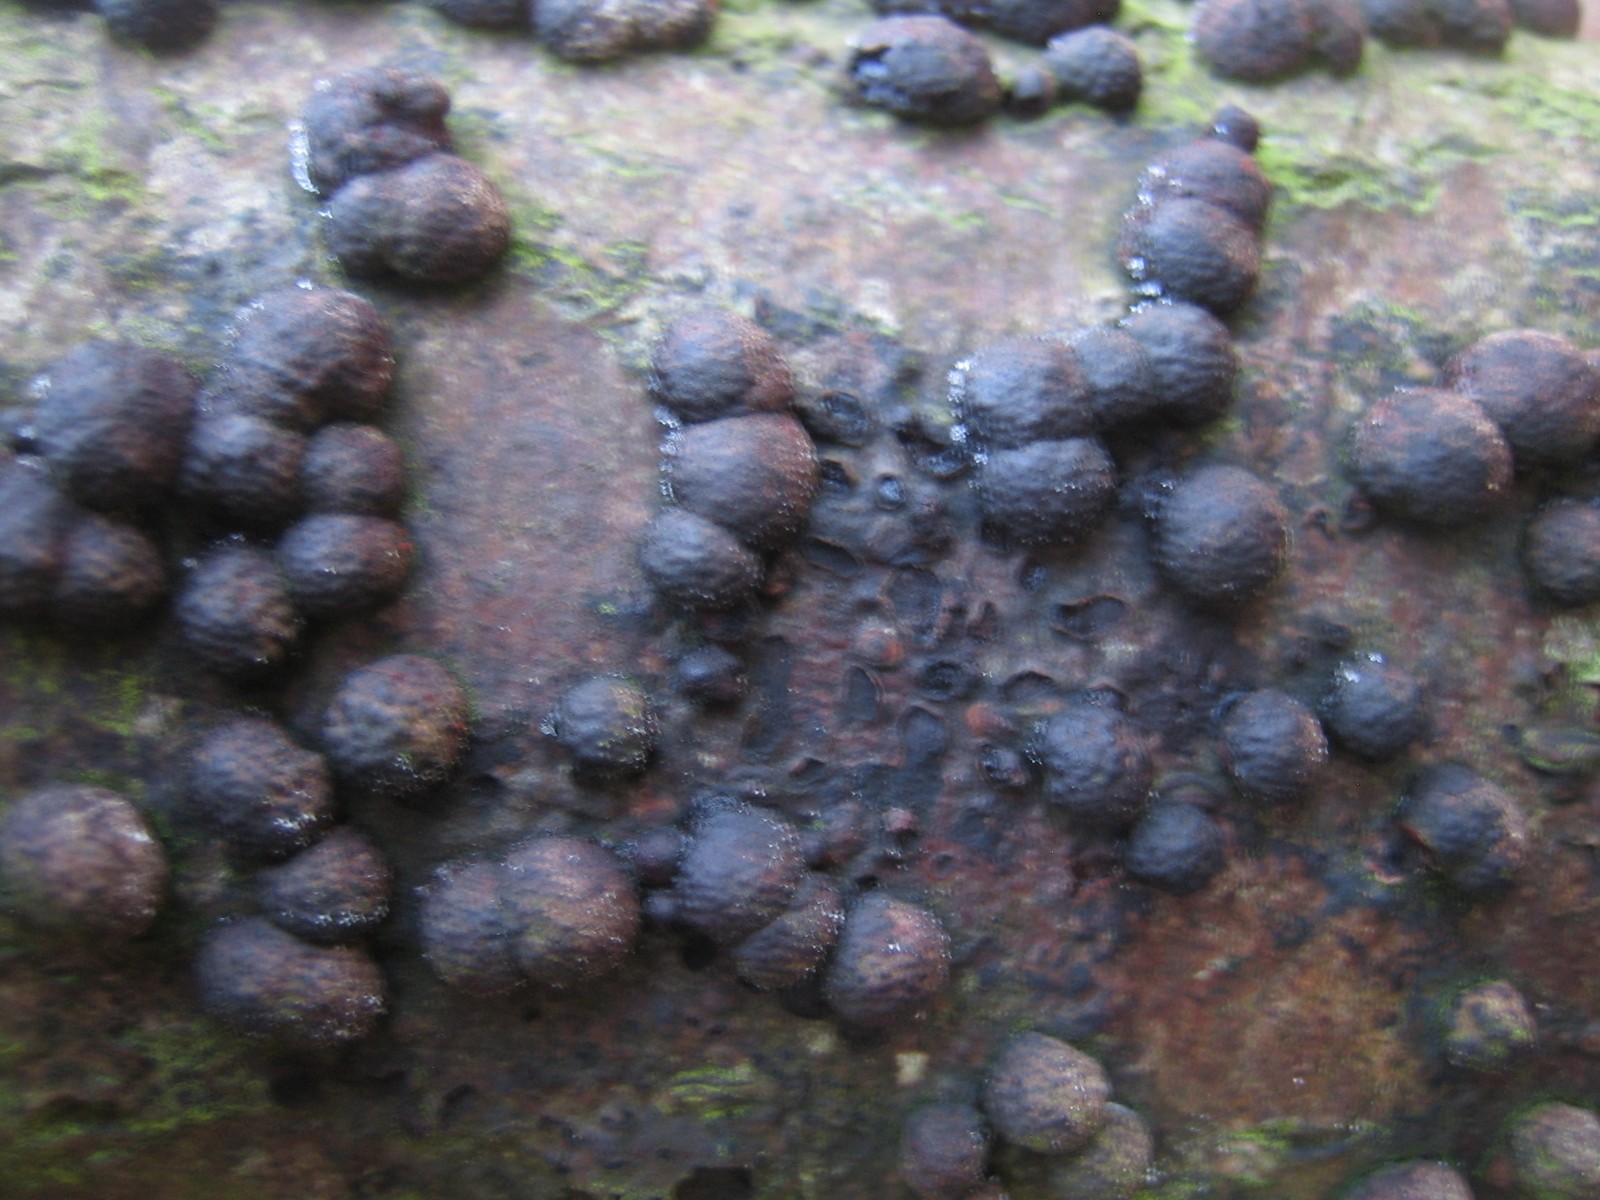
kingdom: Fungi
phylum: Ascomycota
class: Sordariomycetes
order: Xylariales
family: Hypoxylaceae
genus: Hypoxylon
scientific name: Hypoxylon fragiforme
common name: kuljordbær
